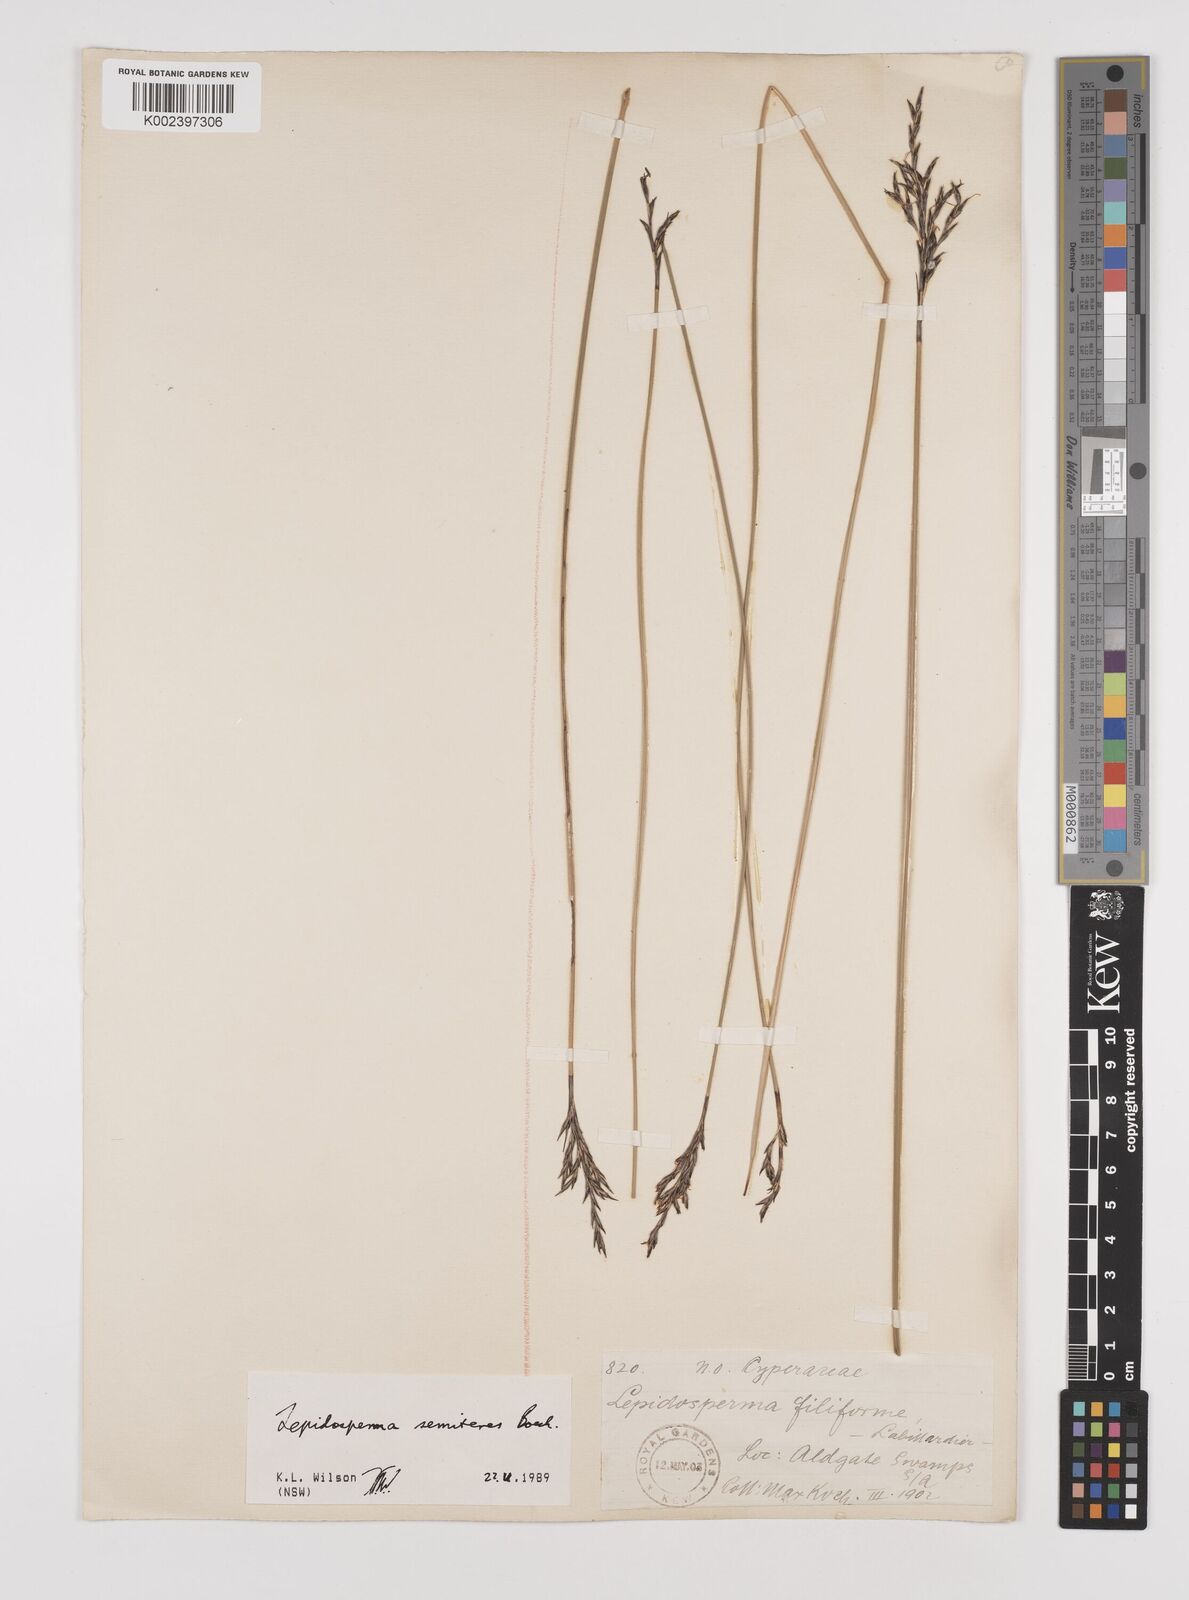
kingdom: Plantae
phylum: Tracheophyta
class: Liliopsida
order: Poales
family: Cyperaceae
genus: Lepidosperma
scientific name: Lepidosperma
